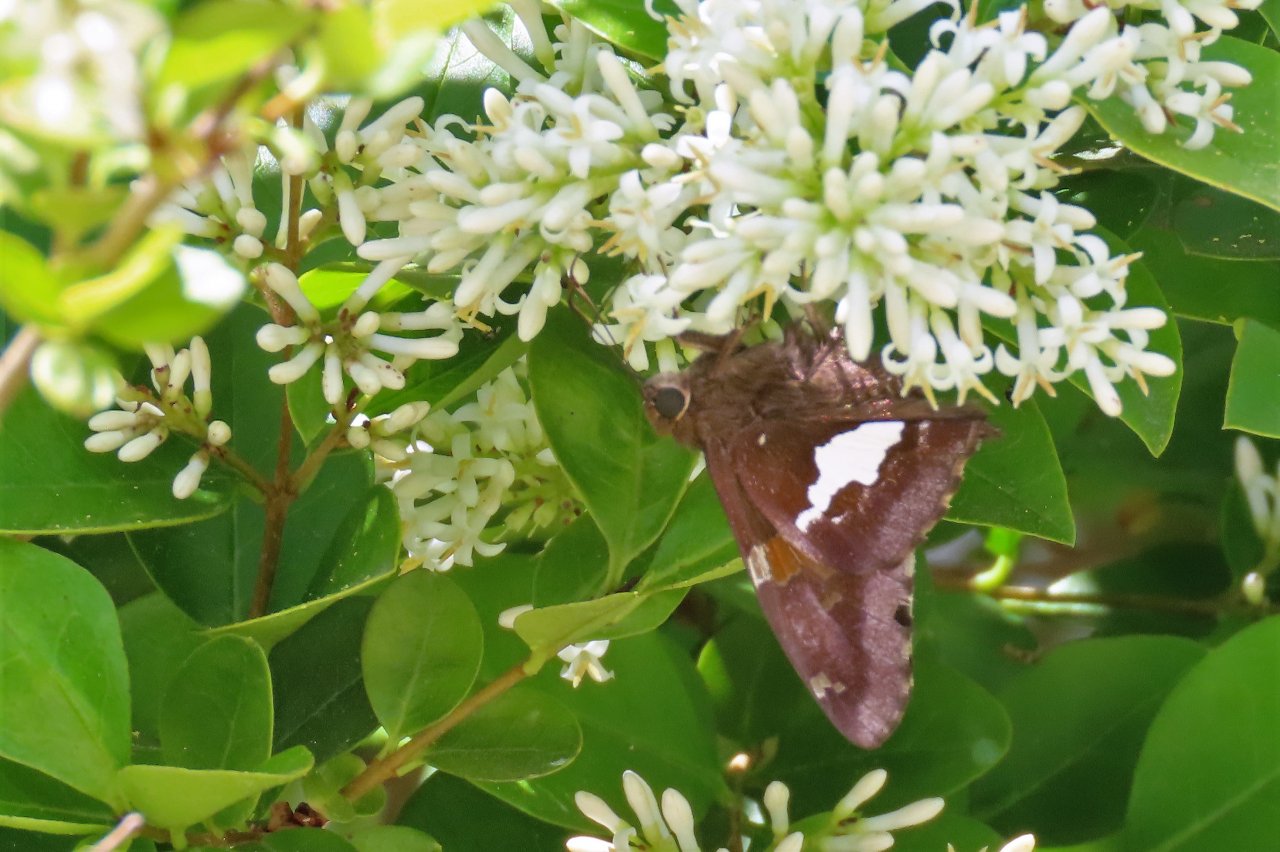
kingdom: Animalia
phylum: Arthropoda
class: Insecta
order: Lepidoptera
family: Hesperiidae
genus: Epargyreus
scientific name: Epargyreus clarus
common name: Silver-spotted Skipper
